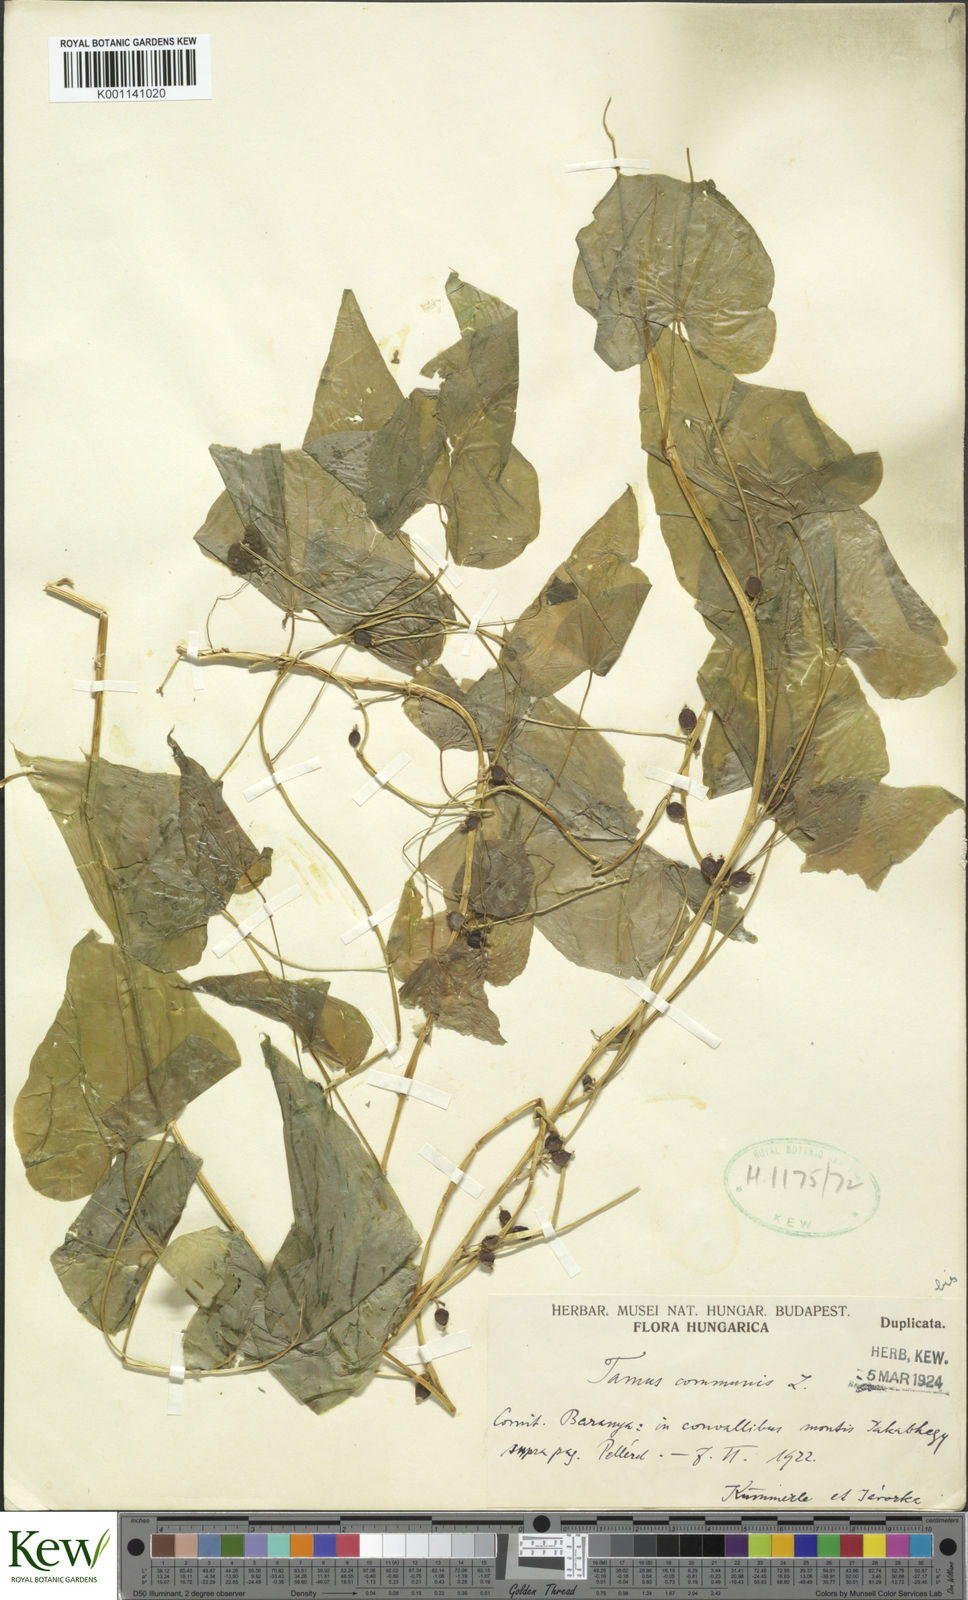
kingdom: Plantae
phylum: Tracheophyta
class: Liliopsida
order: Dioscoreales
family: Dioscoreaceae
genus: Dioscorea
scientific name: Dioscorea communis
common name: Black-bindweed
